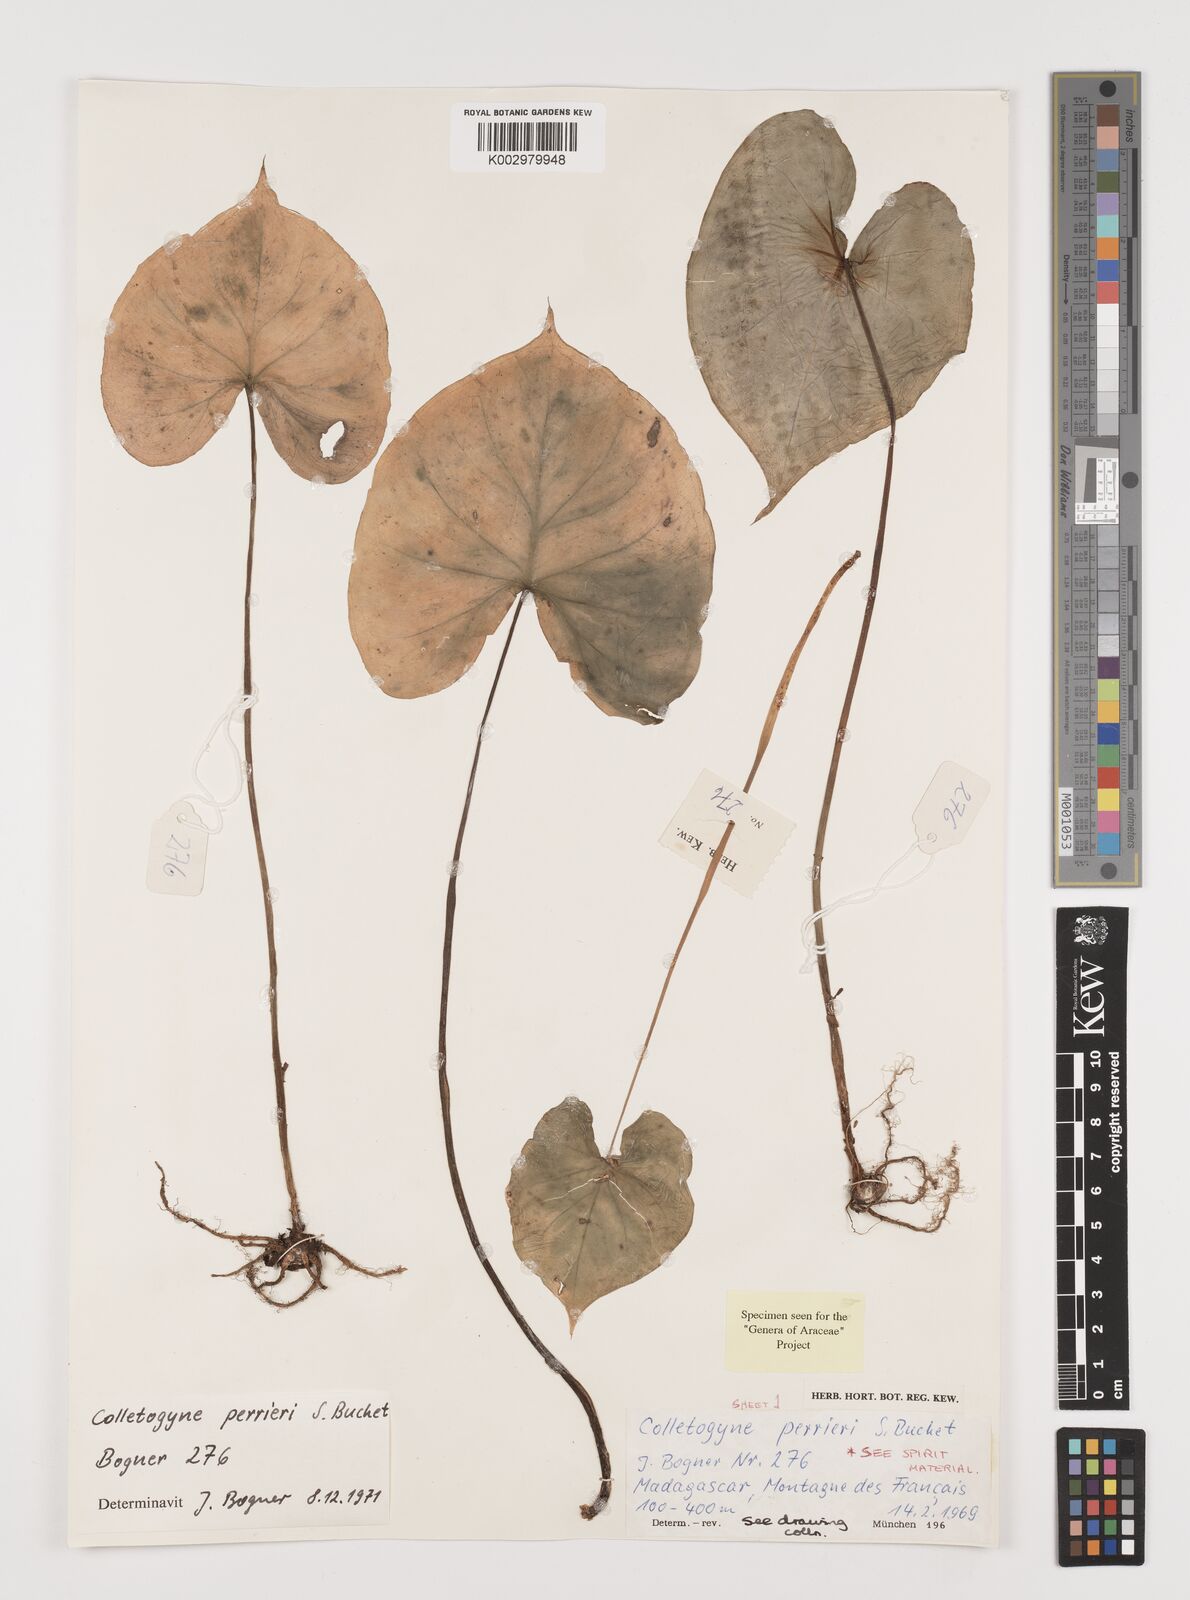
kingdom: Plantae
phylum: Tracheophyta
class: Liliopsida
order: Alismatales
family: Araceae
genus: Colletogyne
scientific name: Colletogyne perrieri
